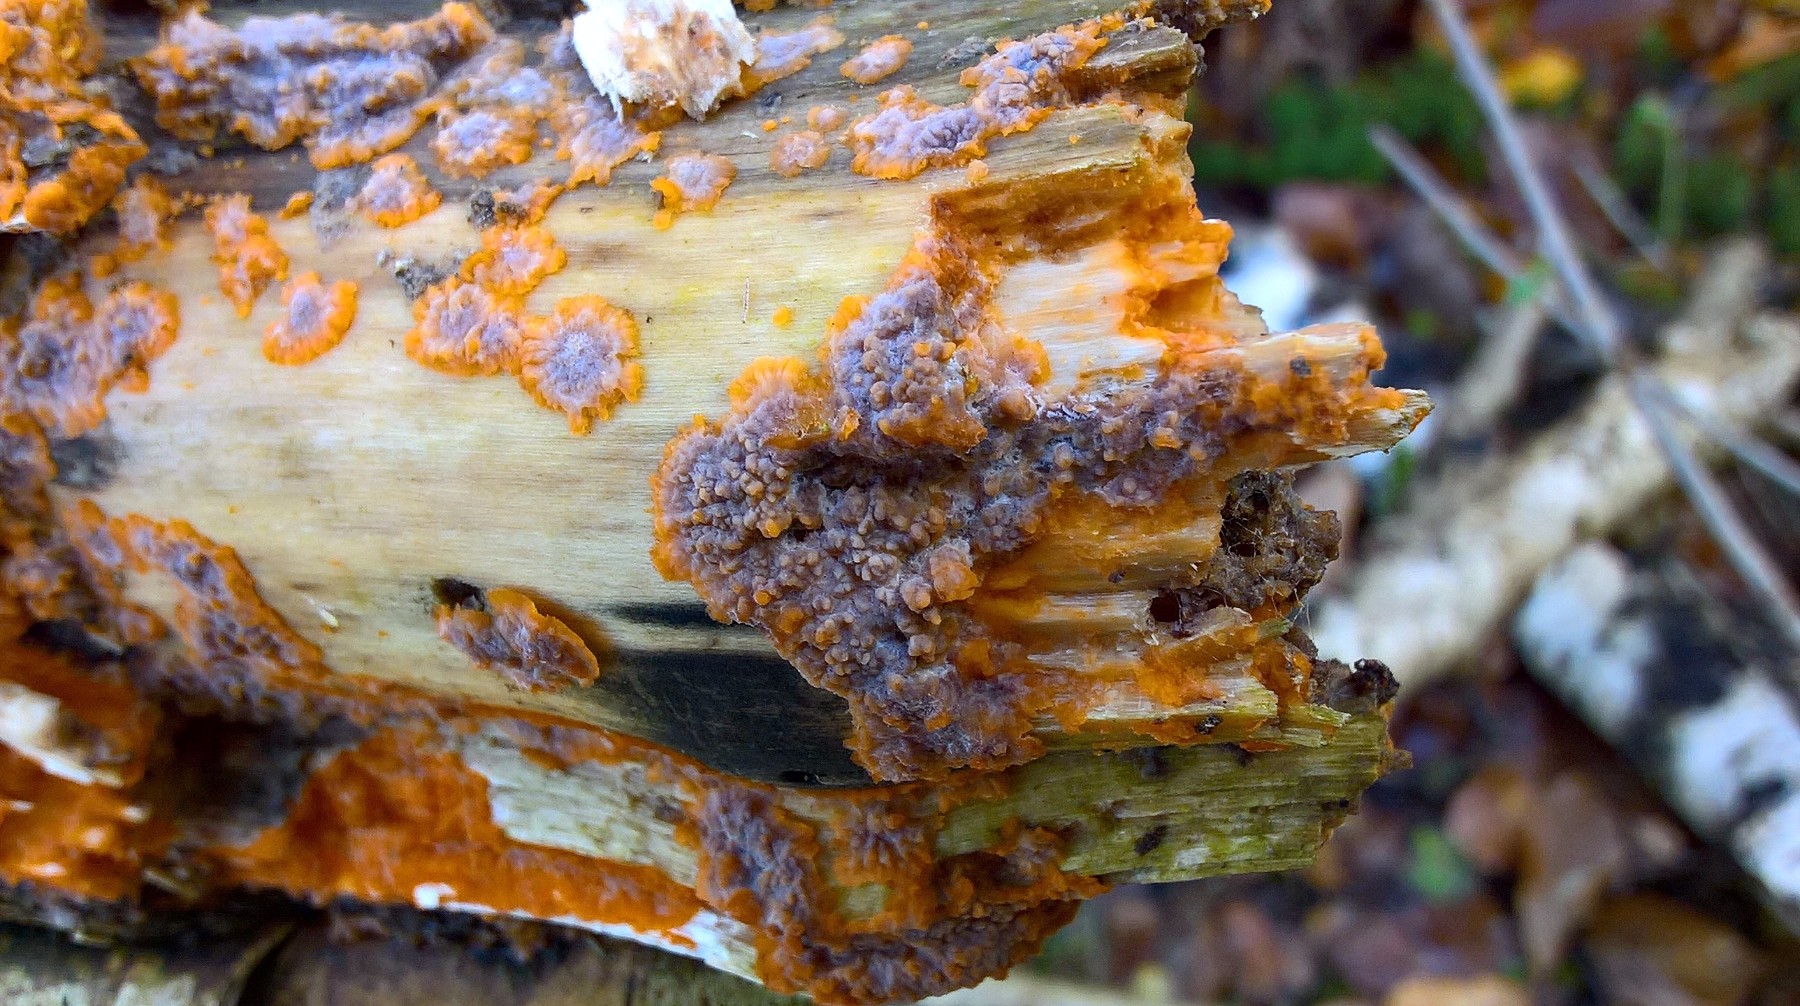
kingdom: Fungi
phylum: Basidiomycota
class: Agaricomycetes
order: Polyporales
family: Meruliaceae
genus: Phlebia
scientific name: Phlebia radiata
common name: stråle-åresvamp
